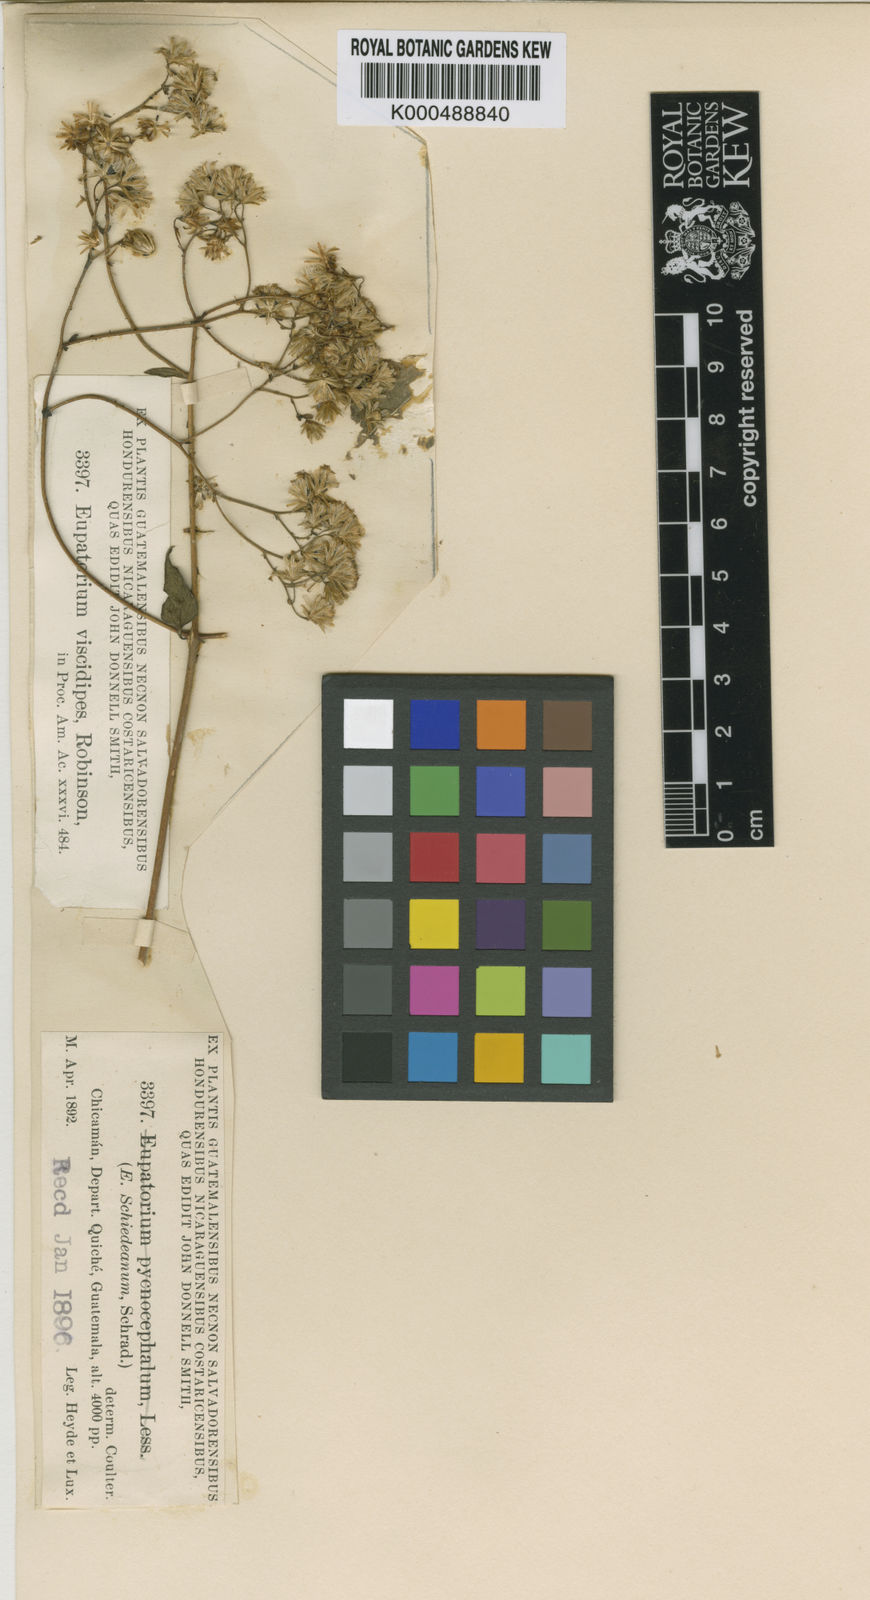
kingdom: Plantae
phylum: Tracheophyta
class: Magnoliopsida
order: Asterales
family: Asteraceae
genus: Fleischmannia
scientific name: Fleischmannia viscidipes
